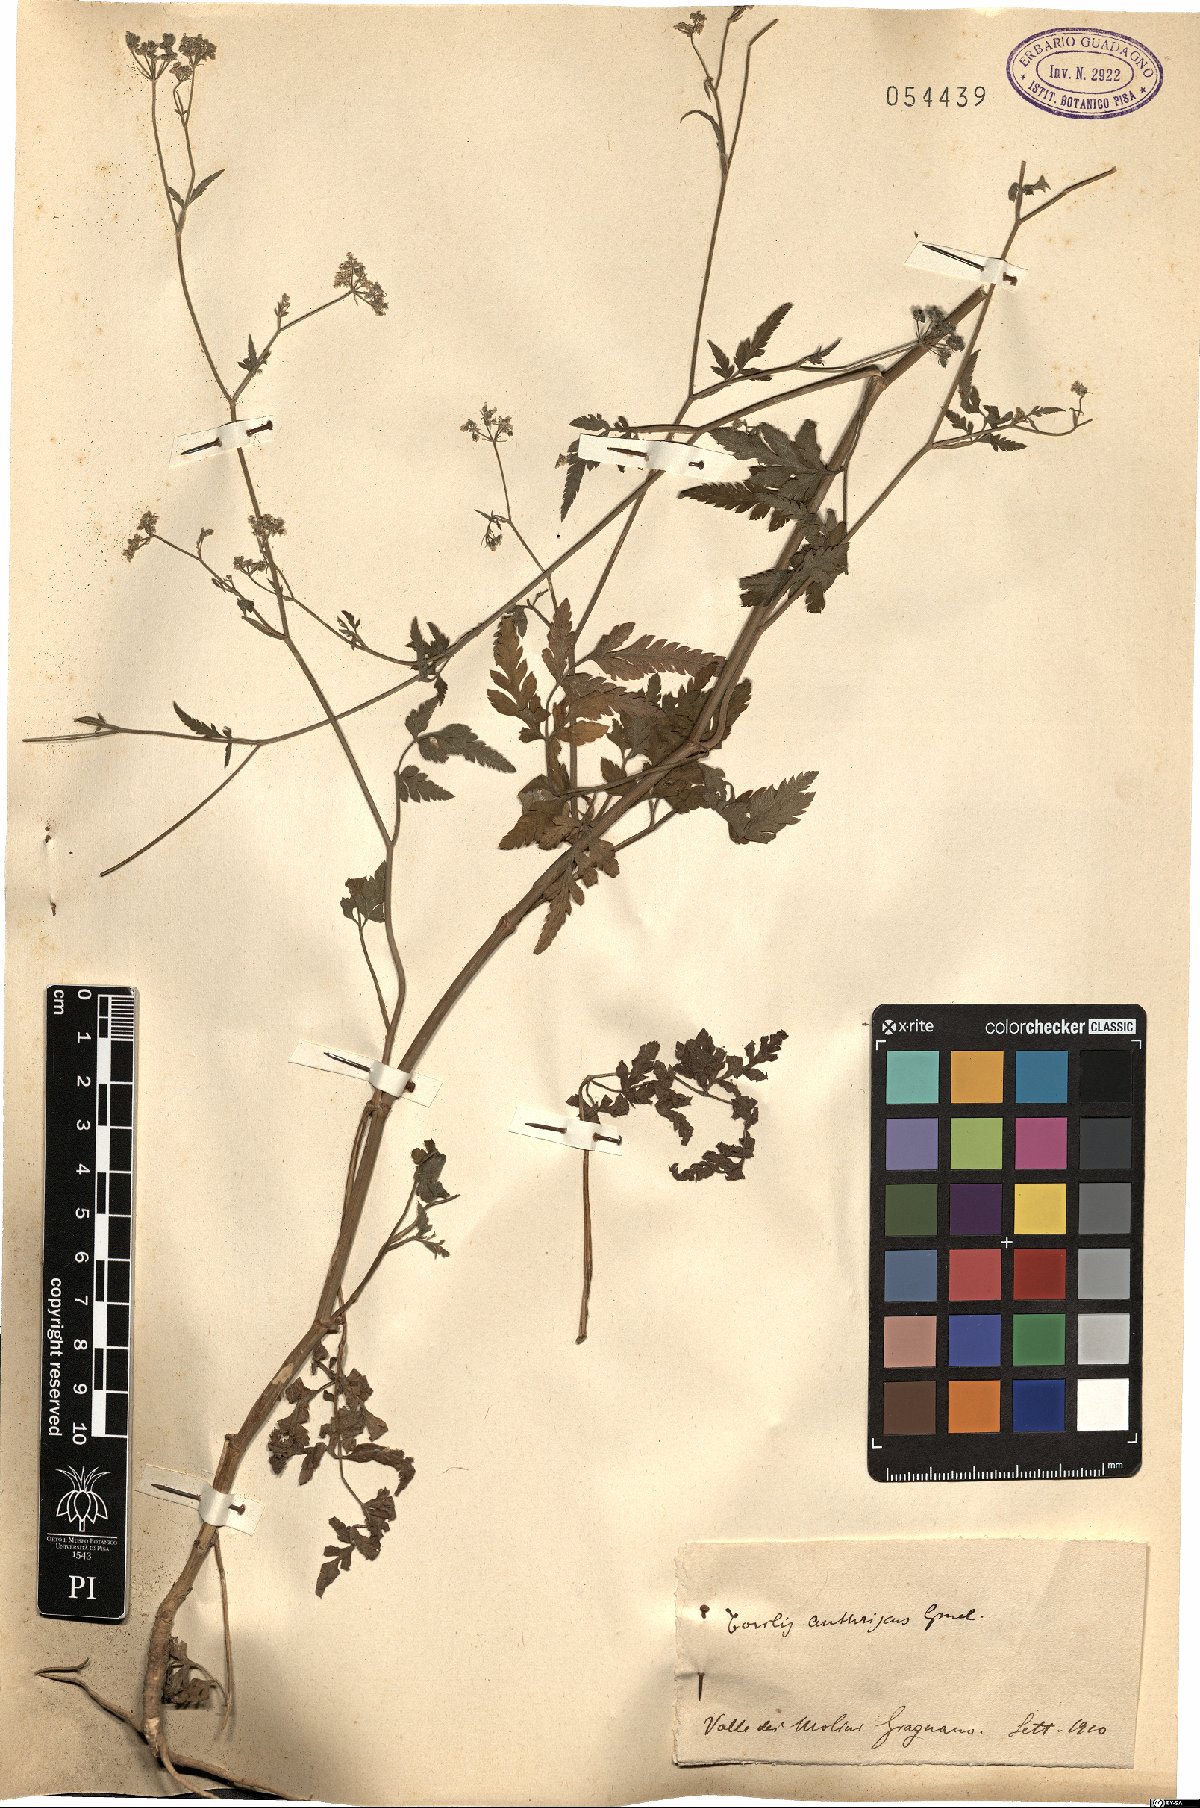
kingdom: Plantae
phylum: Tracheophyta
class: Magnoliopsida
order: Apiales
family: Apiaceae
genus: Torilis
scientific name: Torilis japonica
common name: Upright hedge-parsley
